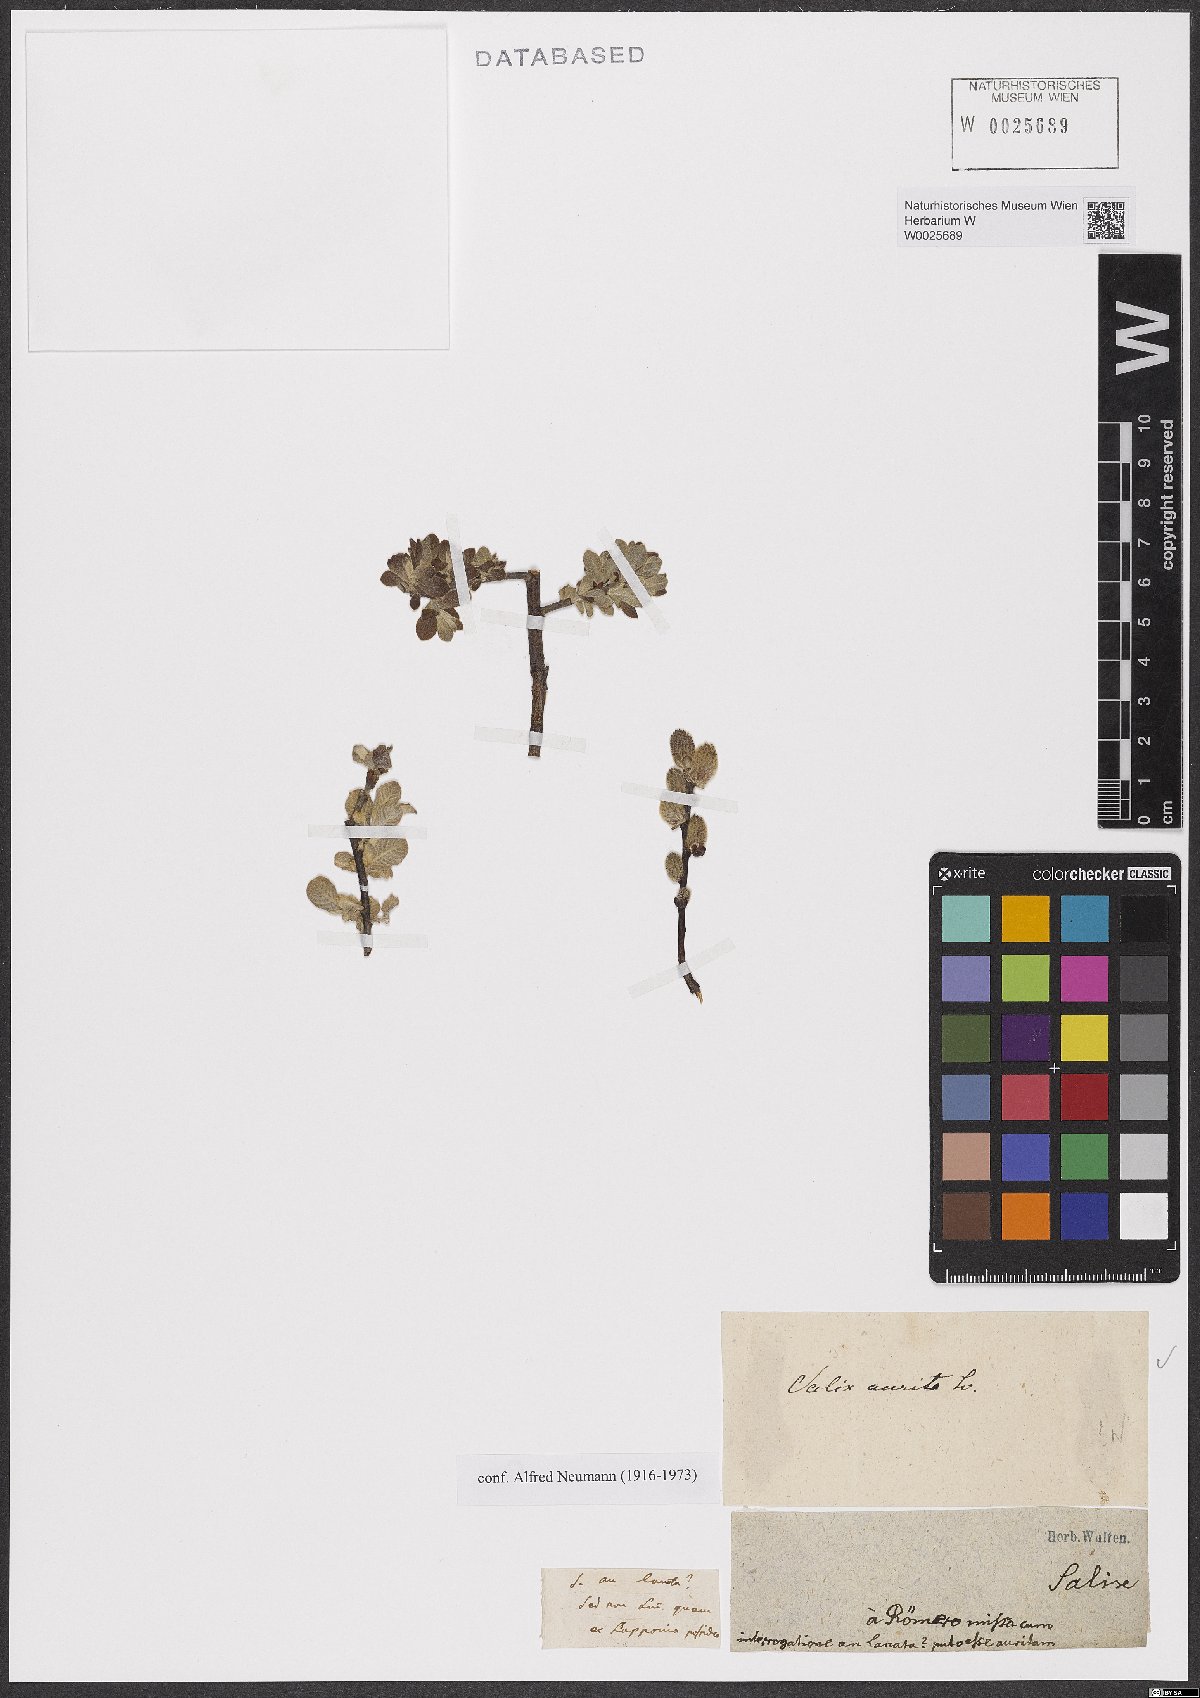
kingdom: Plantae
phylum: Tracheophyta
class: Magnoliopsida
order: Malpighiales
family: Salicaceae
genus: Salix
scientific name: Salix aurita
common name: Eared willow
